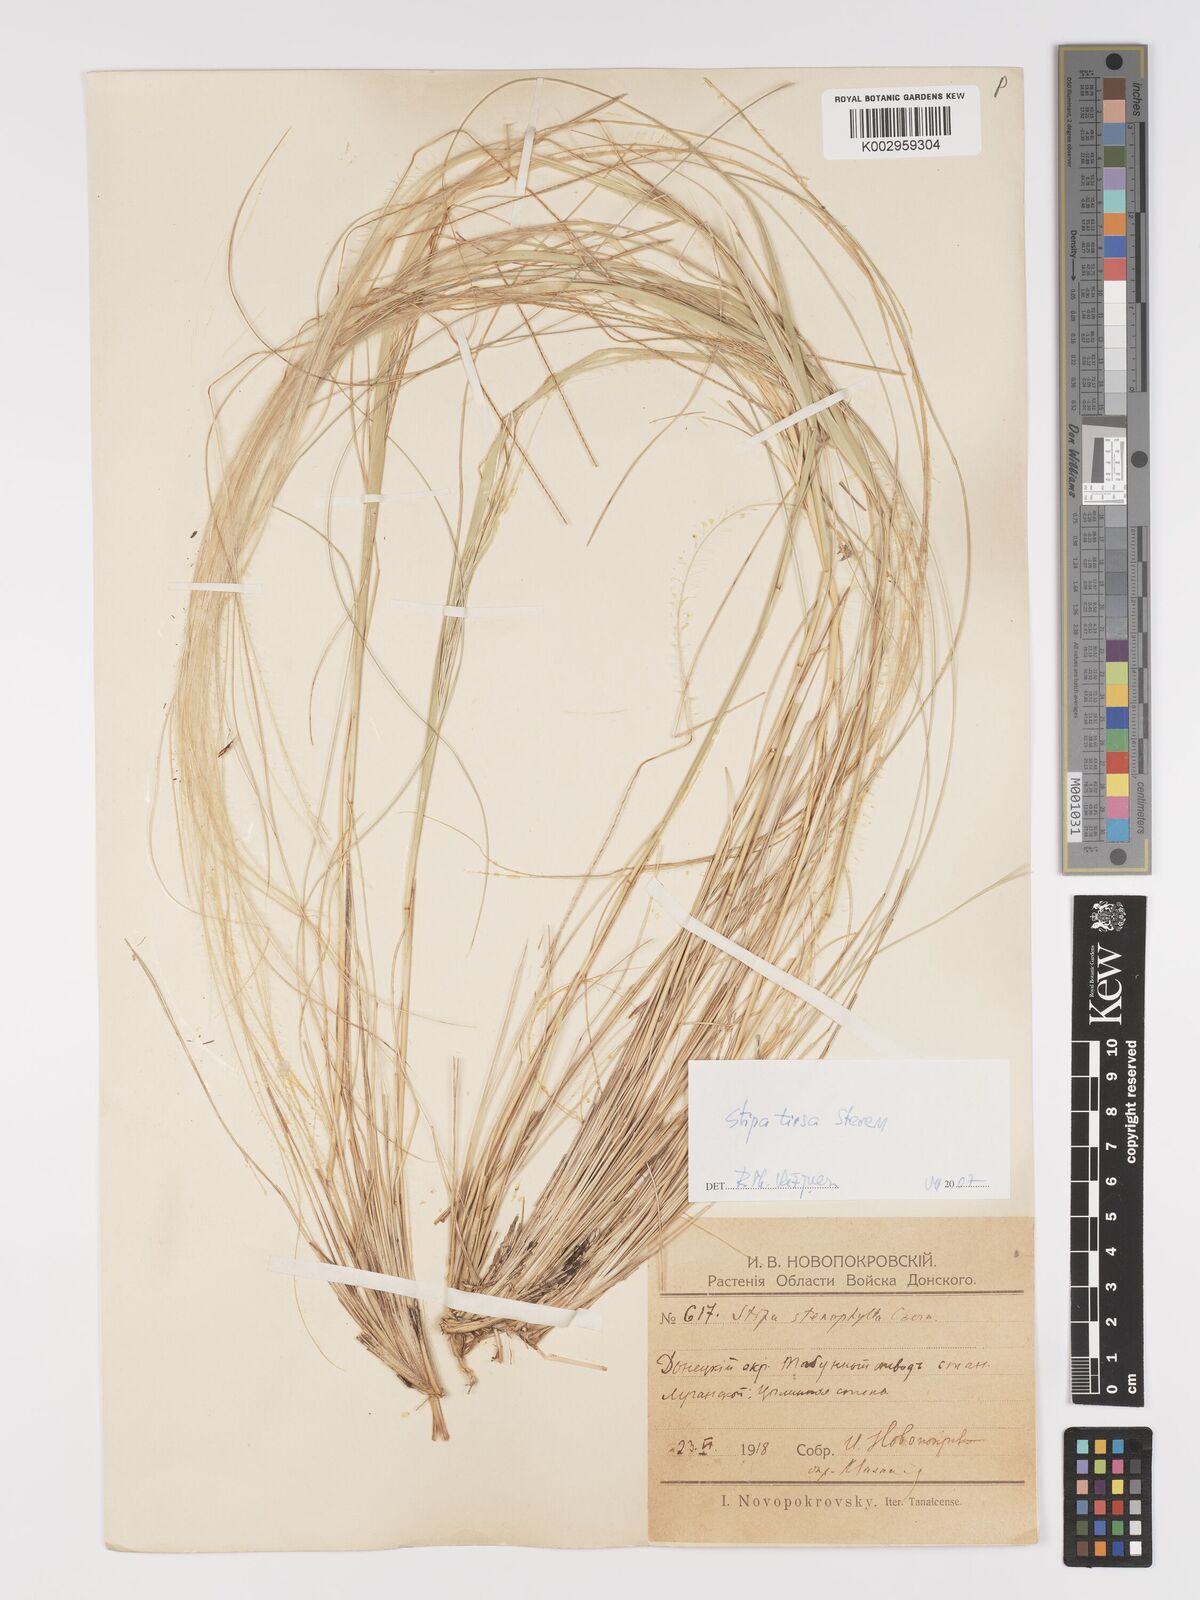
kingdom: Plantae
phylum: Tracheophyta
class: Liliopsida
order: Poales
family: Poaceae
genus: Stipa
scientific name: Stipa tirsa
